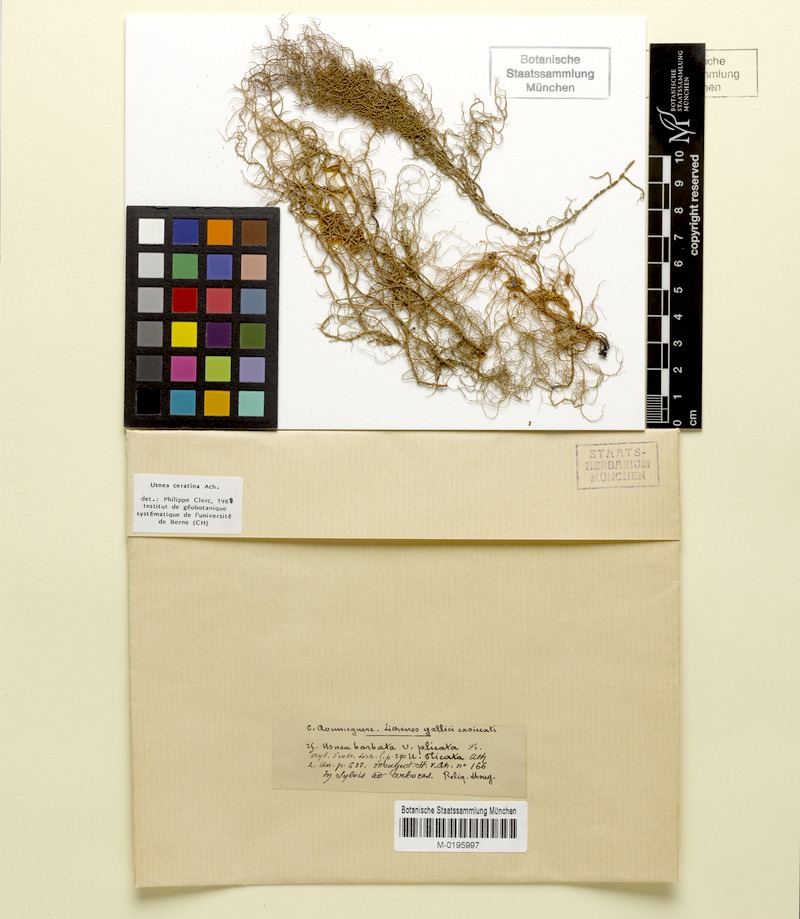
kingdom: Fungi
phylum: Ascomycota
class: Lecanoromycetes
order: Lecanorales
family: Parmeliaceae
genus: Usnea
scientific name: Usnea ceratina
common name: Warty beard lichen
